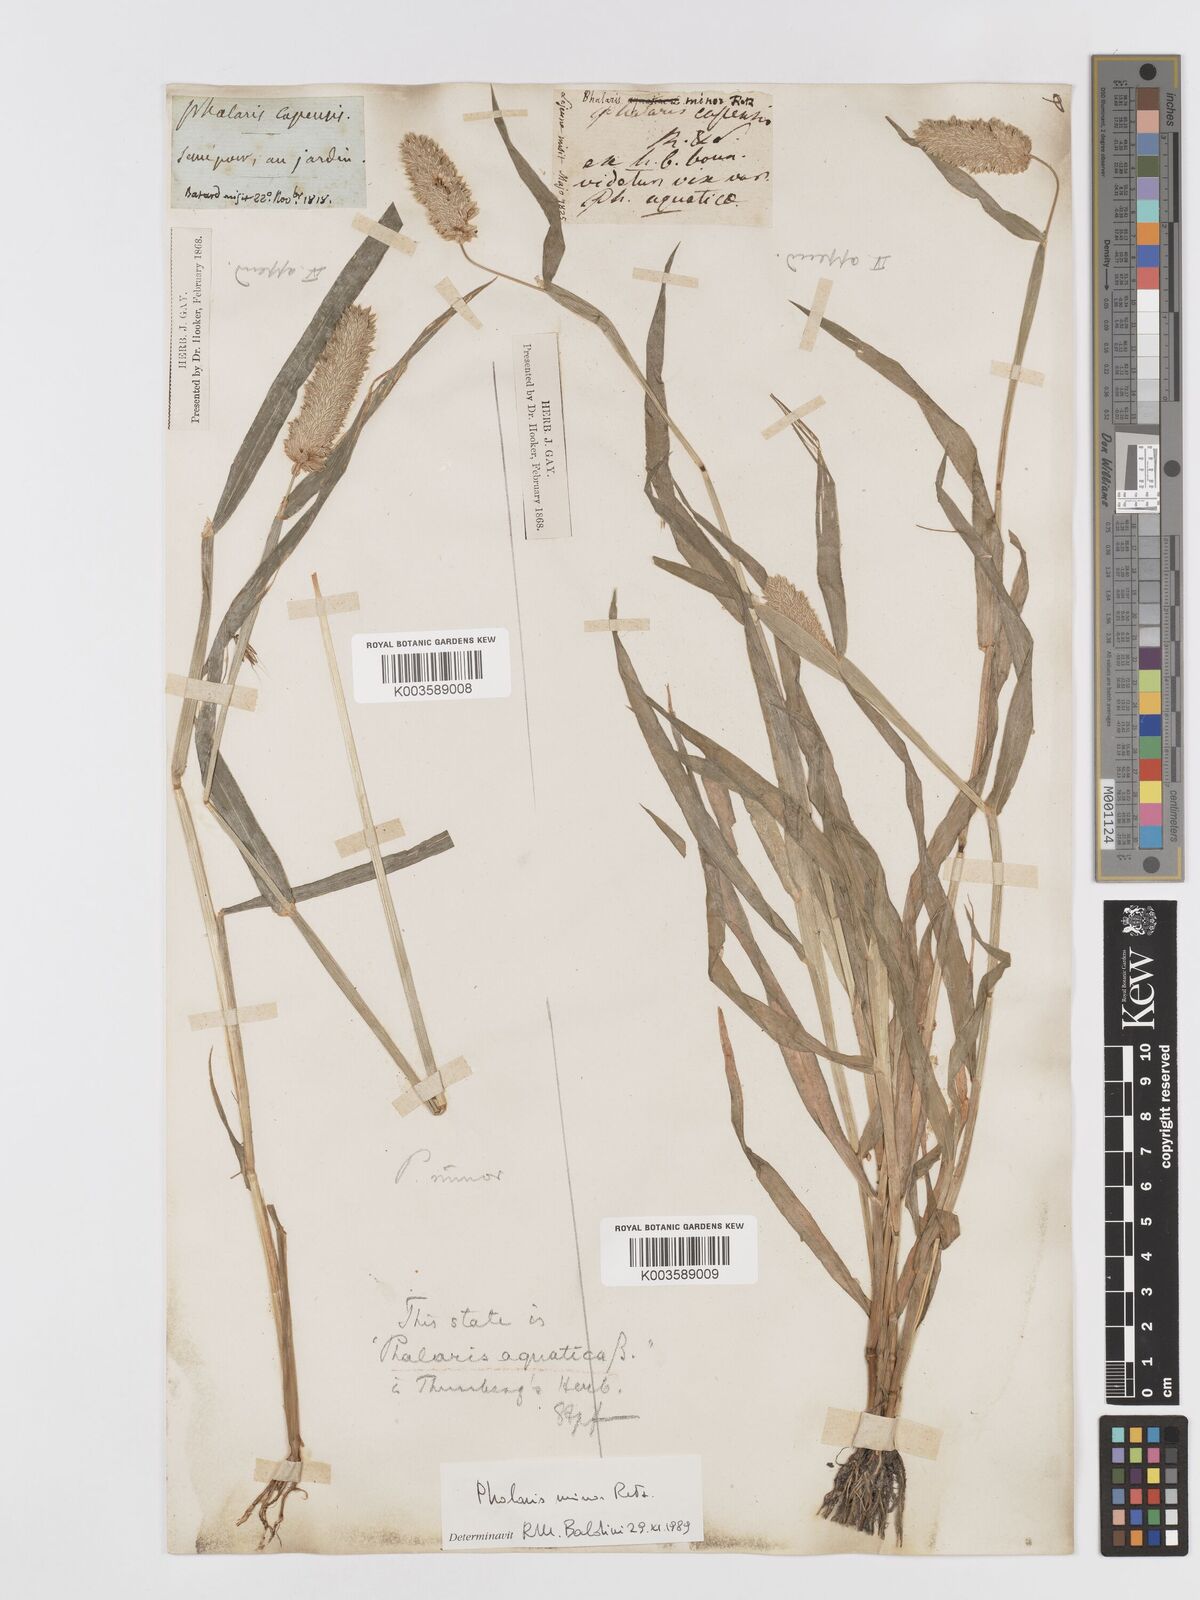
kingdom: Plantae
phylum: Tracheophyta
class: Liliopsida
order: Poales
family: Poaceae
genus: Phalaris
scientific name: Phalaris minor
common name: Littleseed canarygrass
